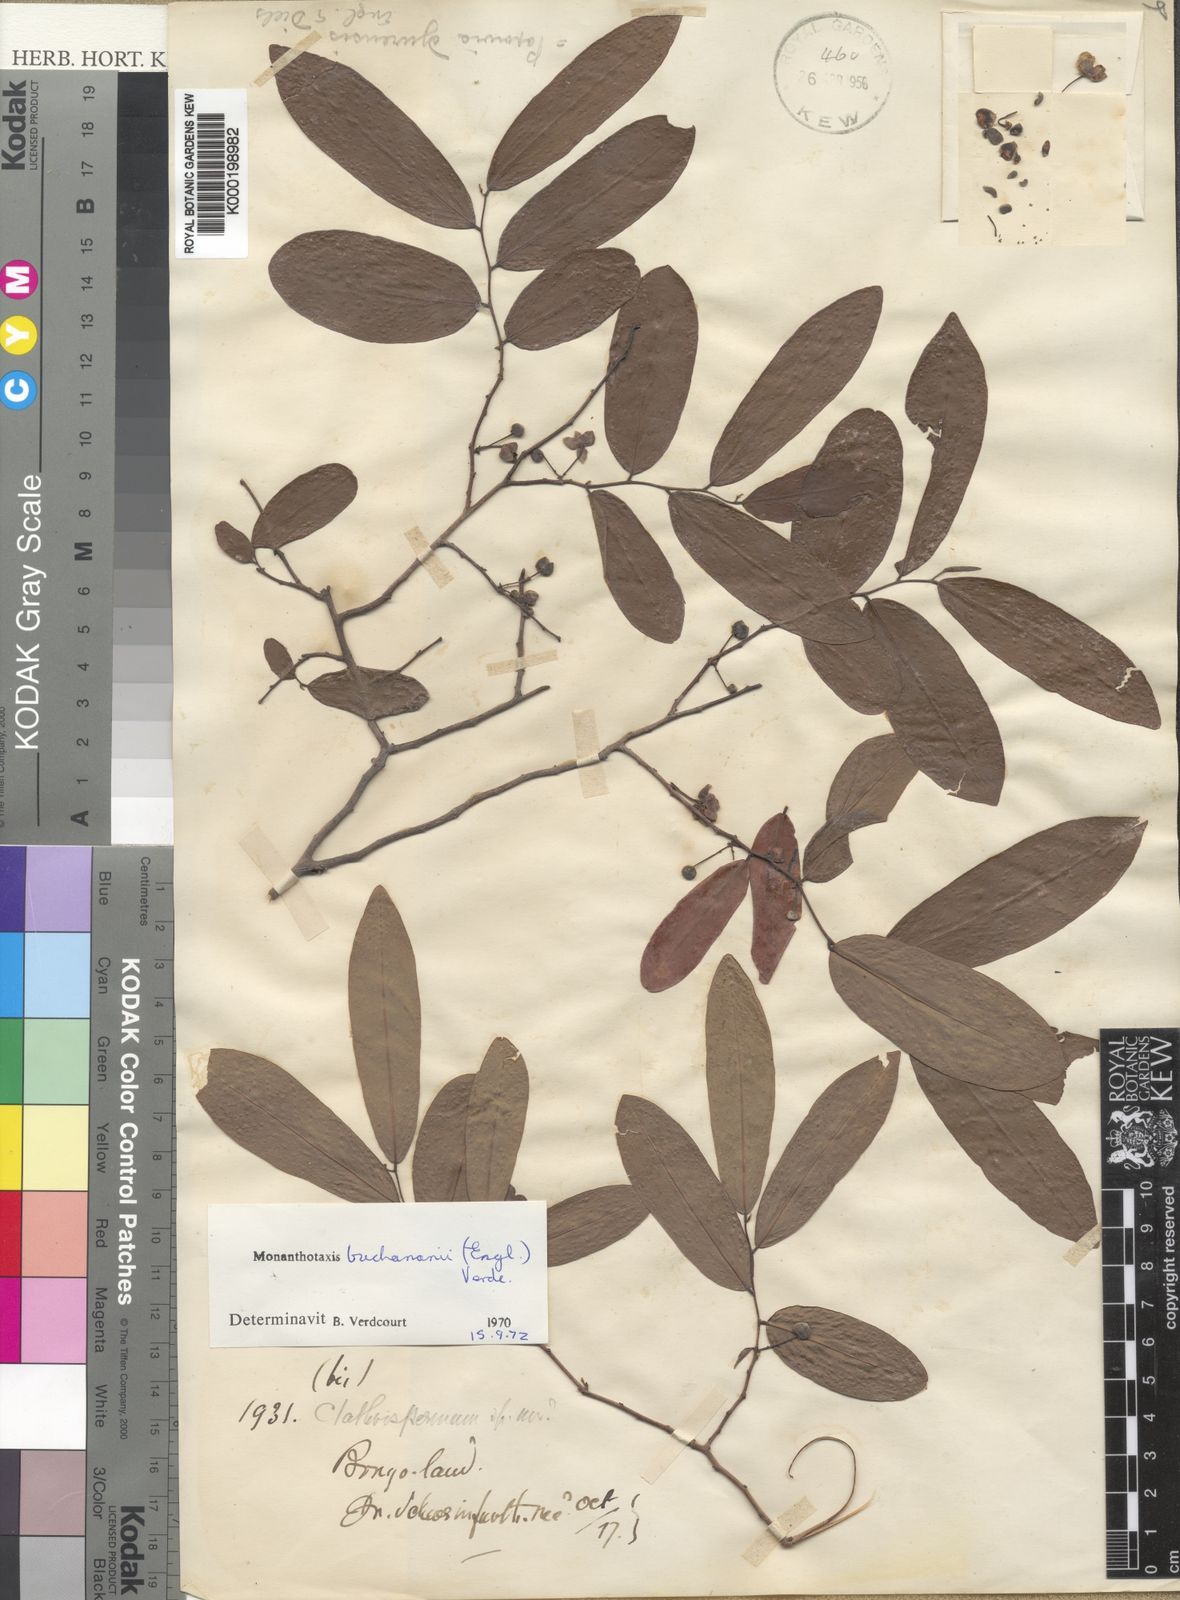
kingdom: Plantae
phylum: Tracheophyta
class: Magnoliopsida
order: Magnoliales
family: Annonaceae
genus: Monanthotaxis
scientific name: Monanthotaxis buchananii
